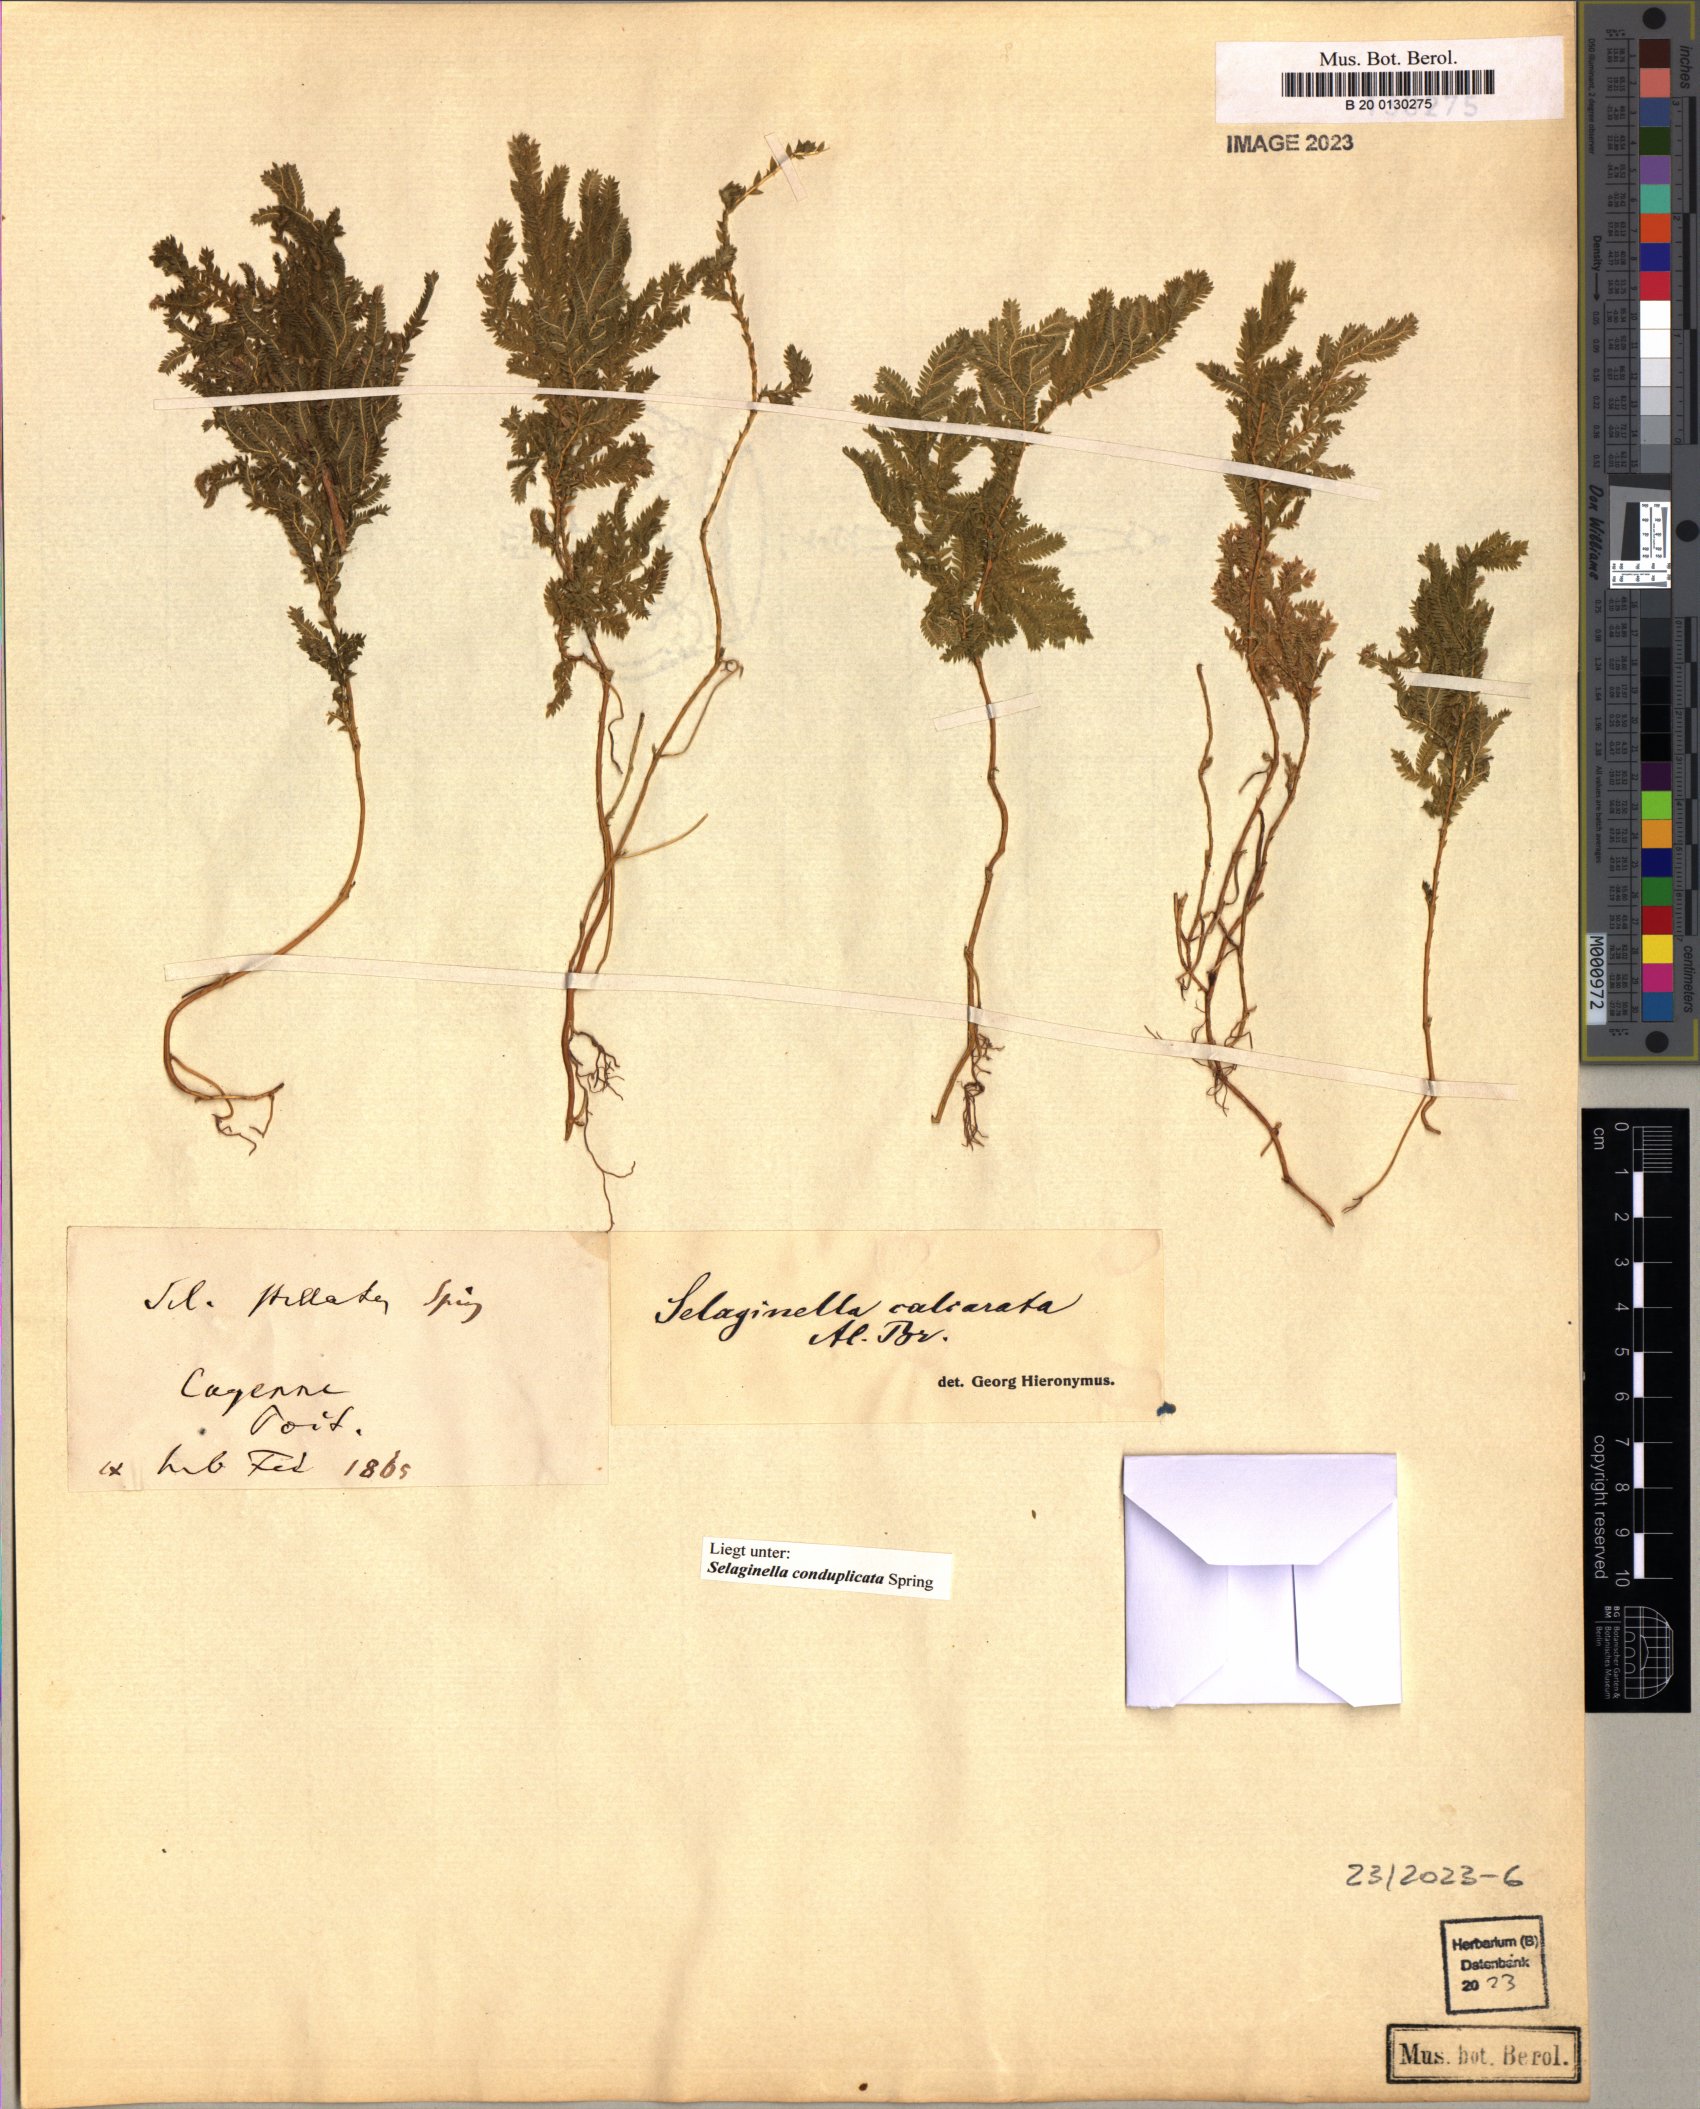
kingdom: Plantae
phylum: Tracheophyta
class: Lycopodiopsida
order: Selaginellales
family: Selaginellaceae
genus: Selaginella
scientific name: Selaginella conduplicata
